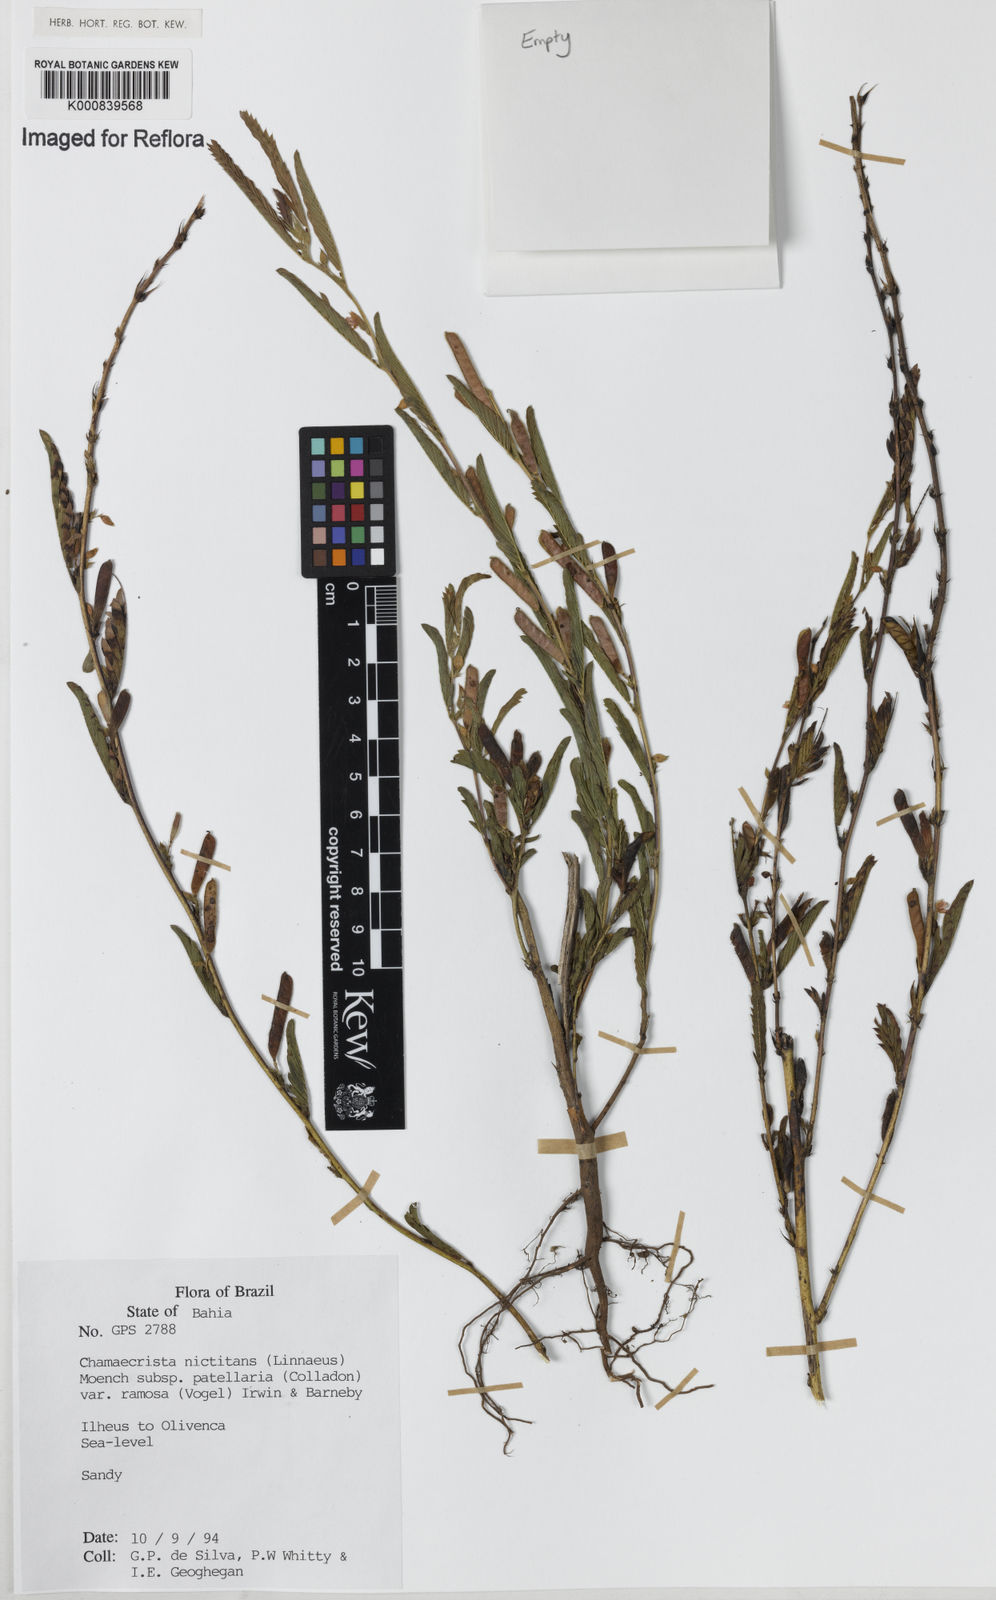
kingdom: Plantae
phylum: Tracheophyta
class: Magnoliopsida
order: Fabales
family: Fabaceae
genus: Chamaecrista
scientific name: Chamaecrista nictitans
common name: Sensitive cassia
